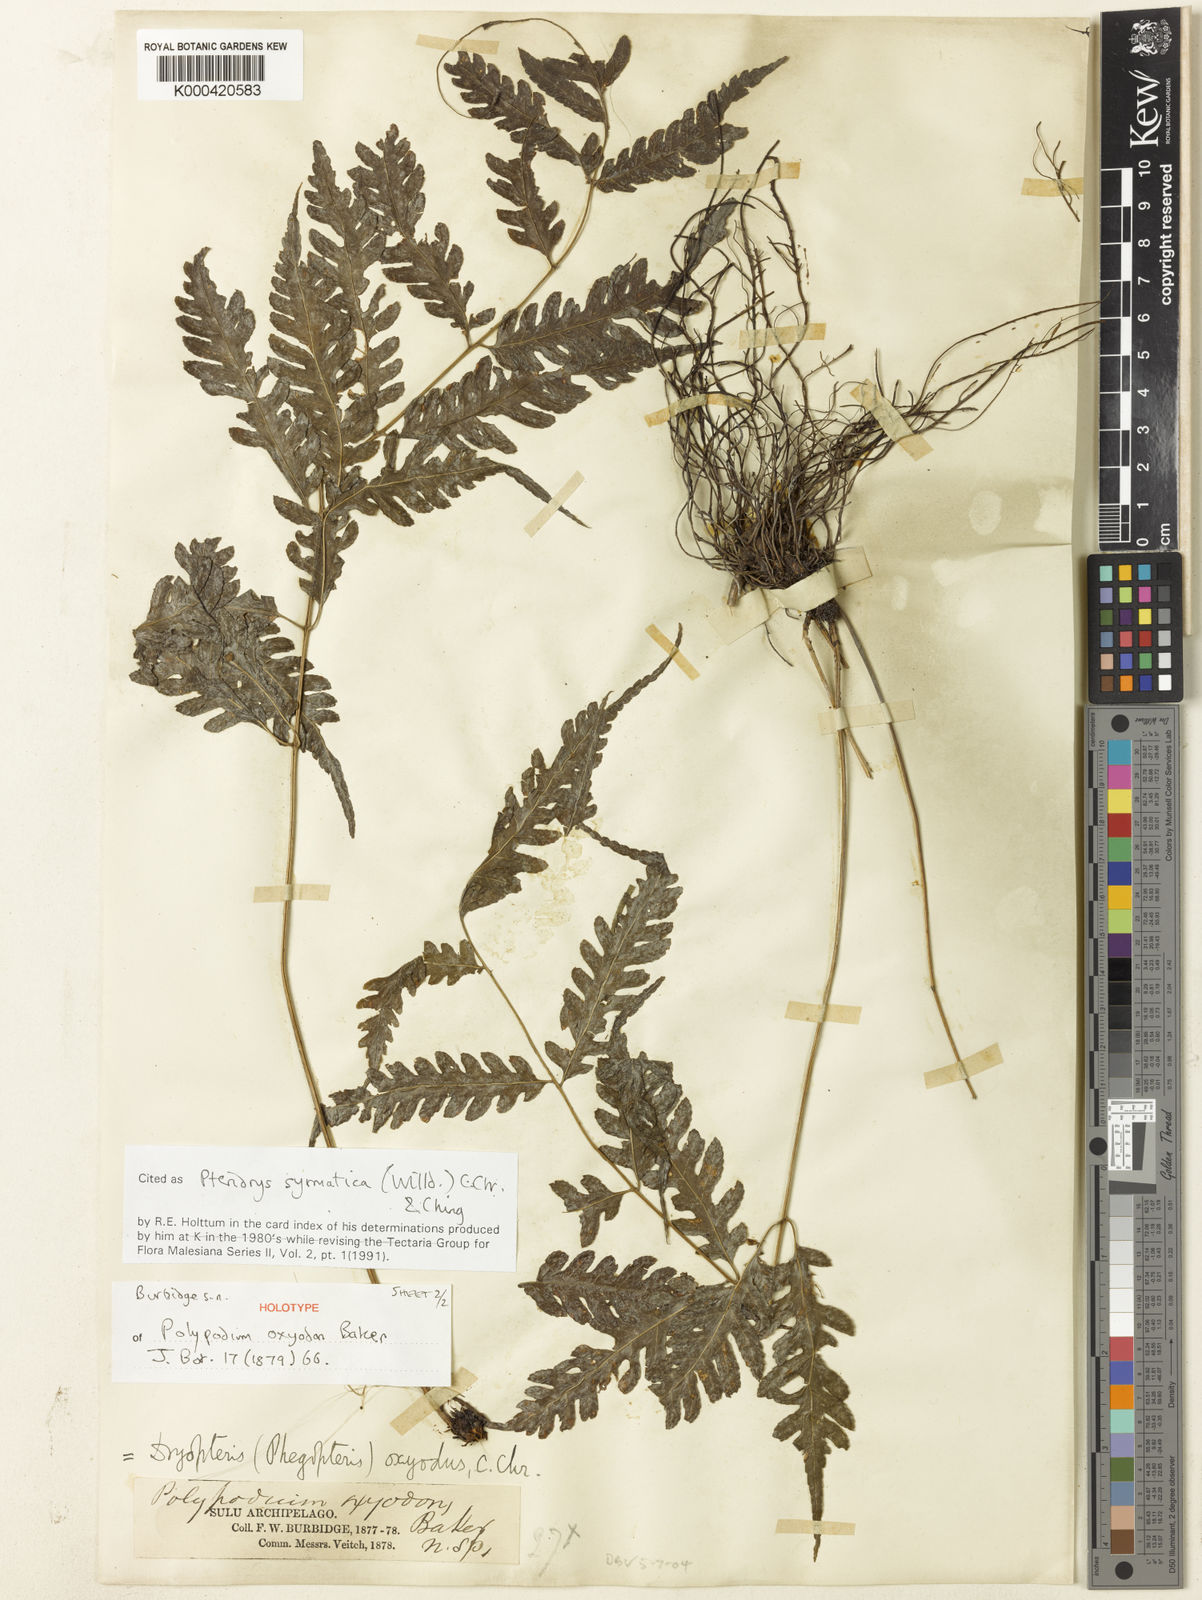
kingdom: Plantae
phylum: Tracheophyta
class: Polypodiopsida
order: Polypodiales
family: Tectariaceae
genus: Pteridrys
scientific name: Pteridrys syrmatica
